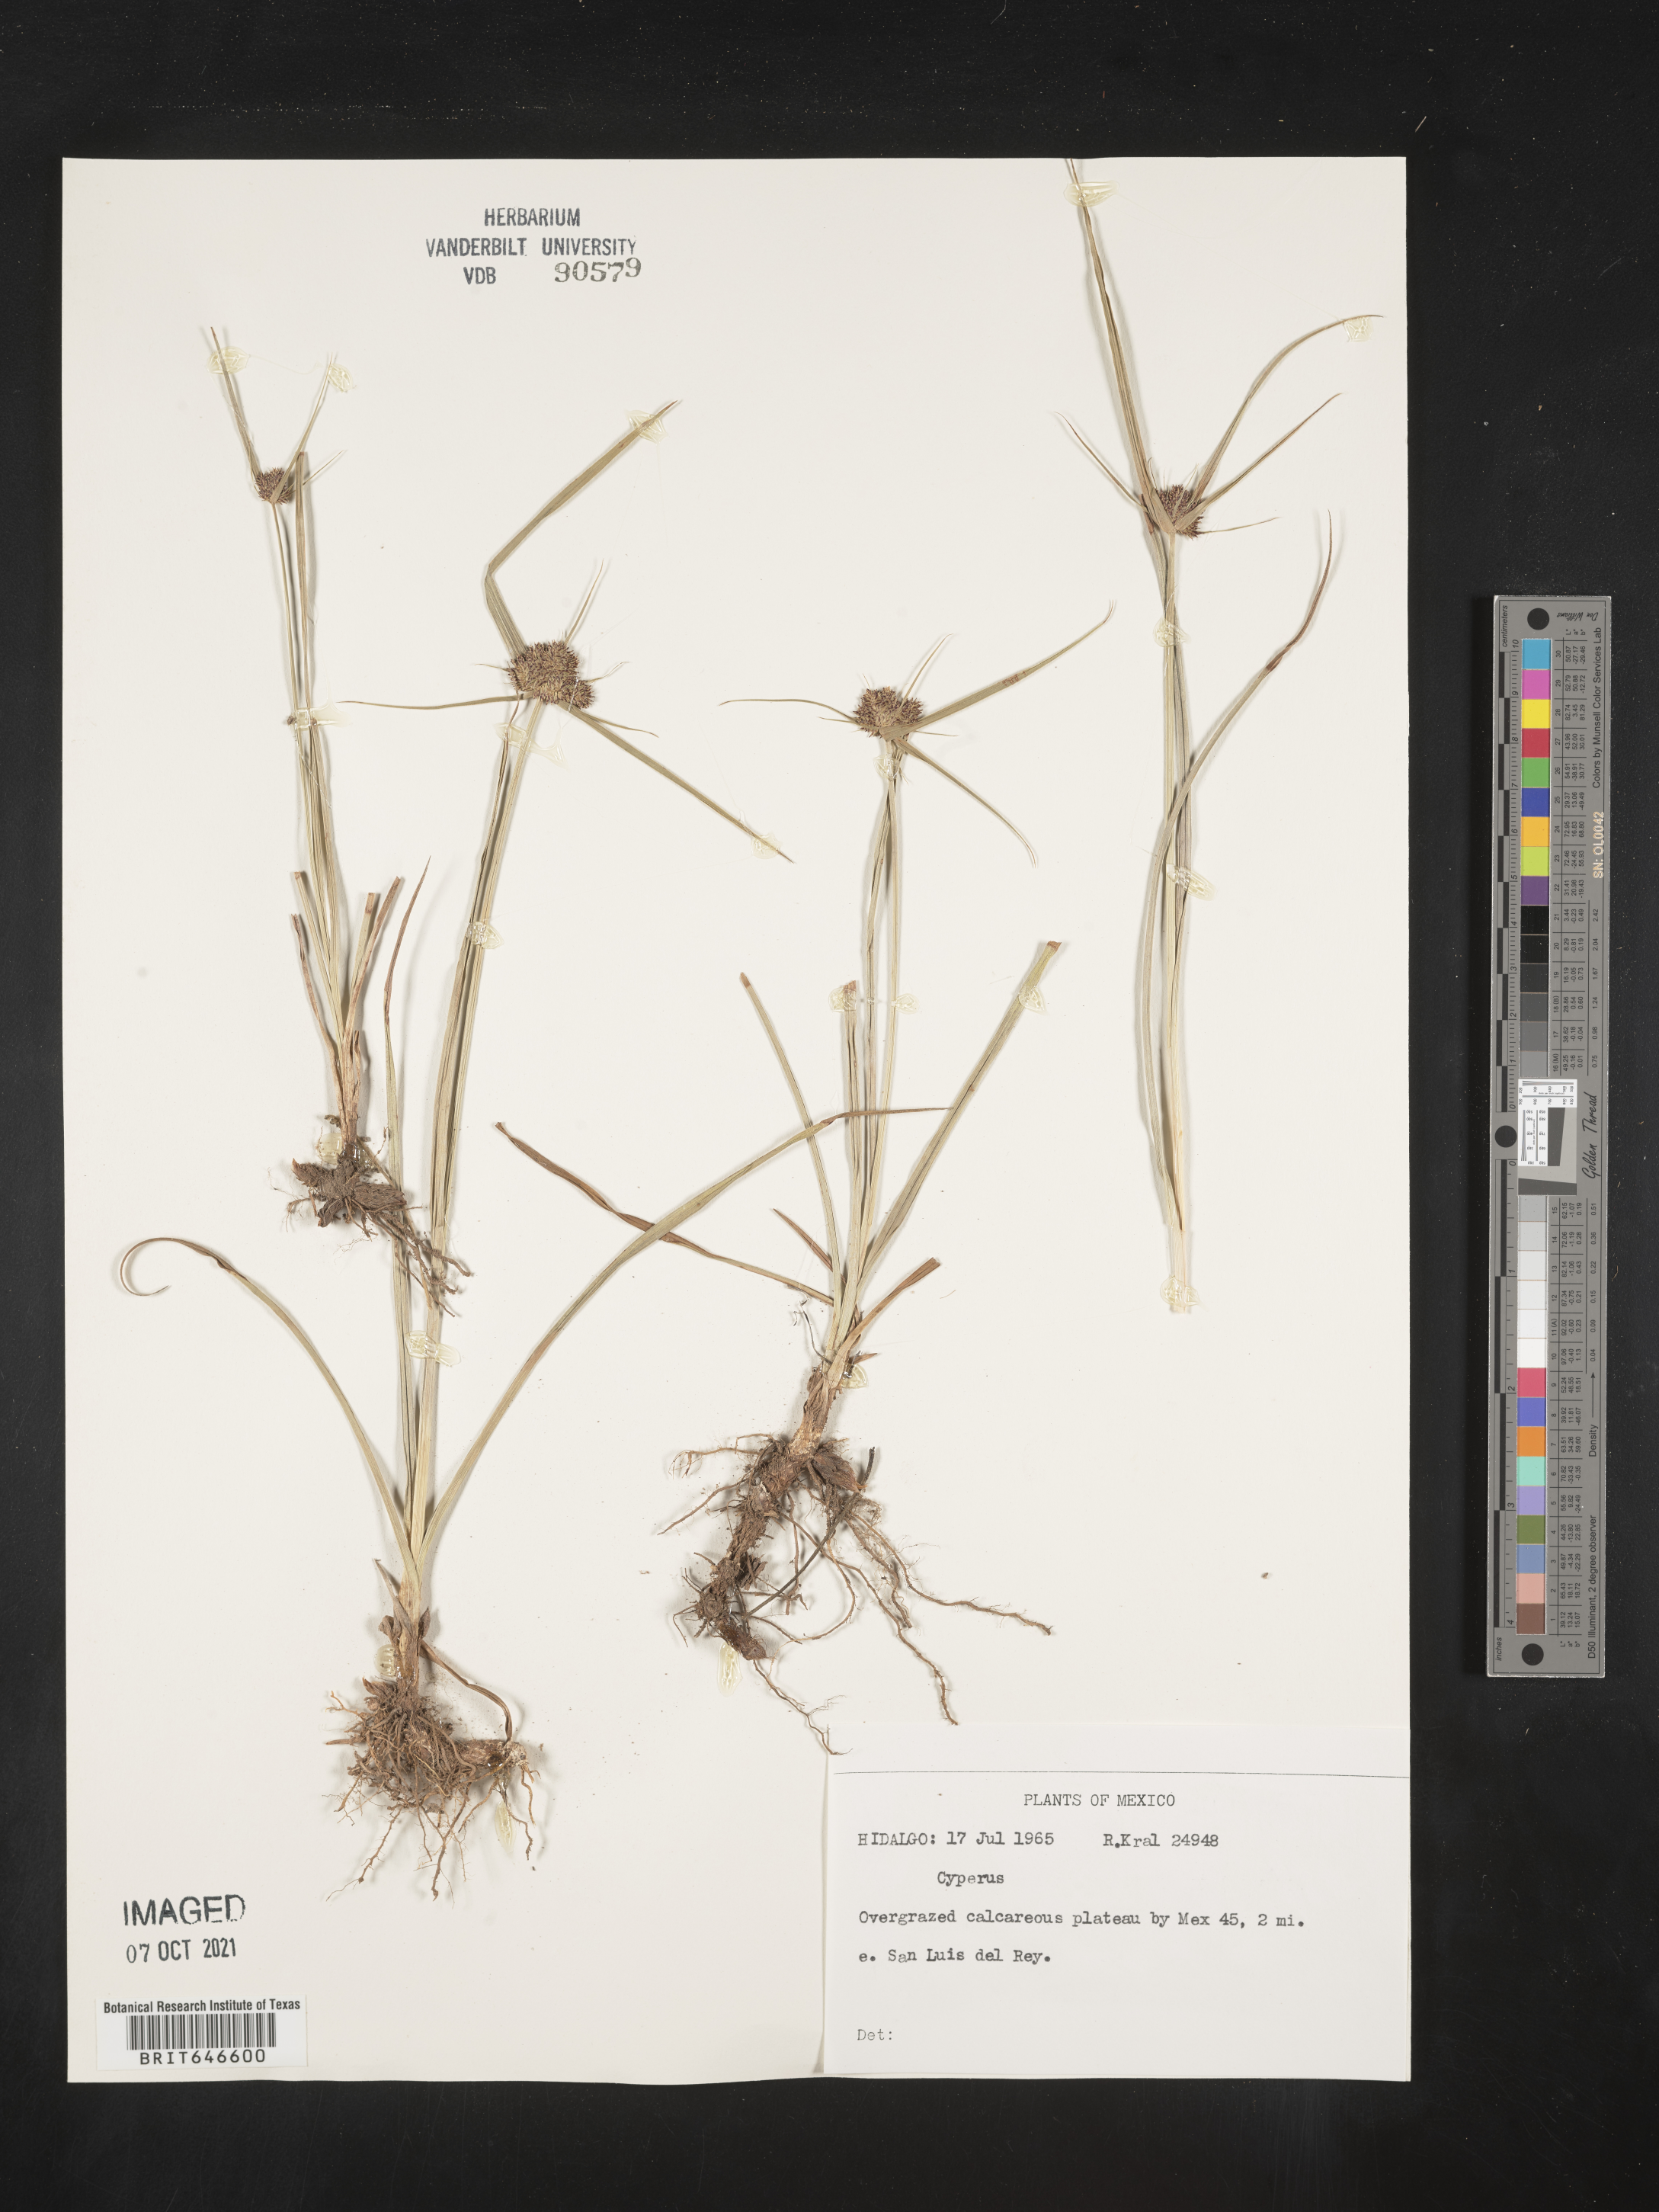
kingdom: Plantae
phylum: Tracheophyta
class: Liliopsida
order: Poales
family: Cyperaceae
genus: Cyperus
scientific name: Cyperus
